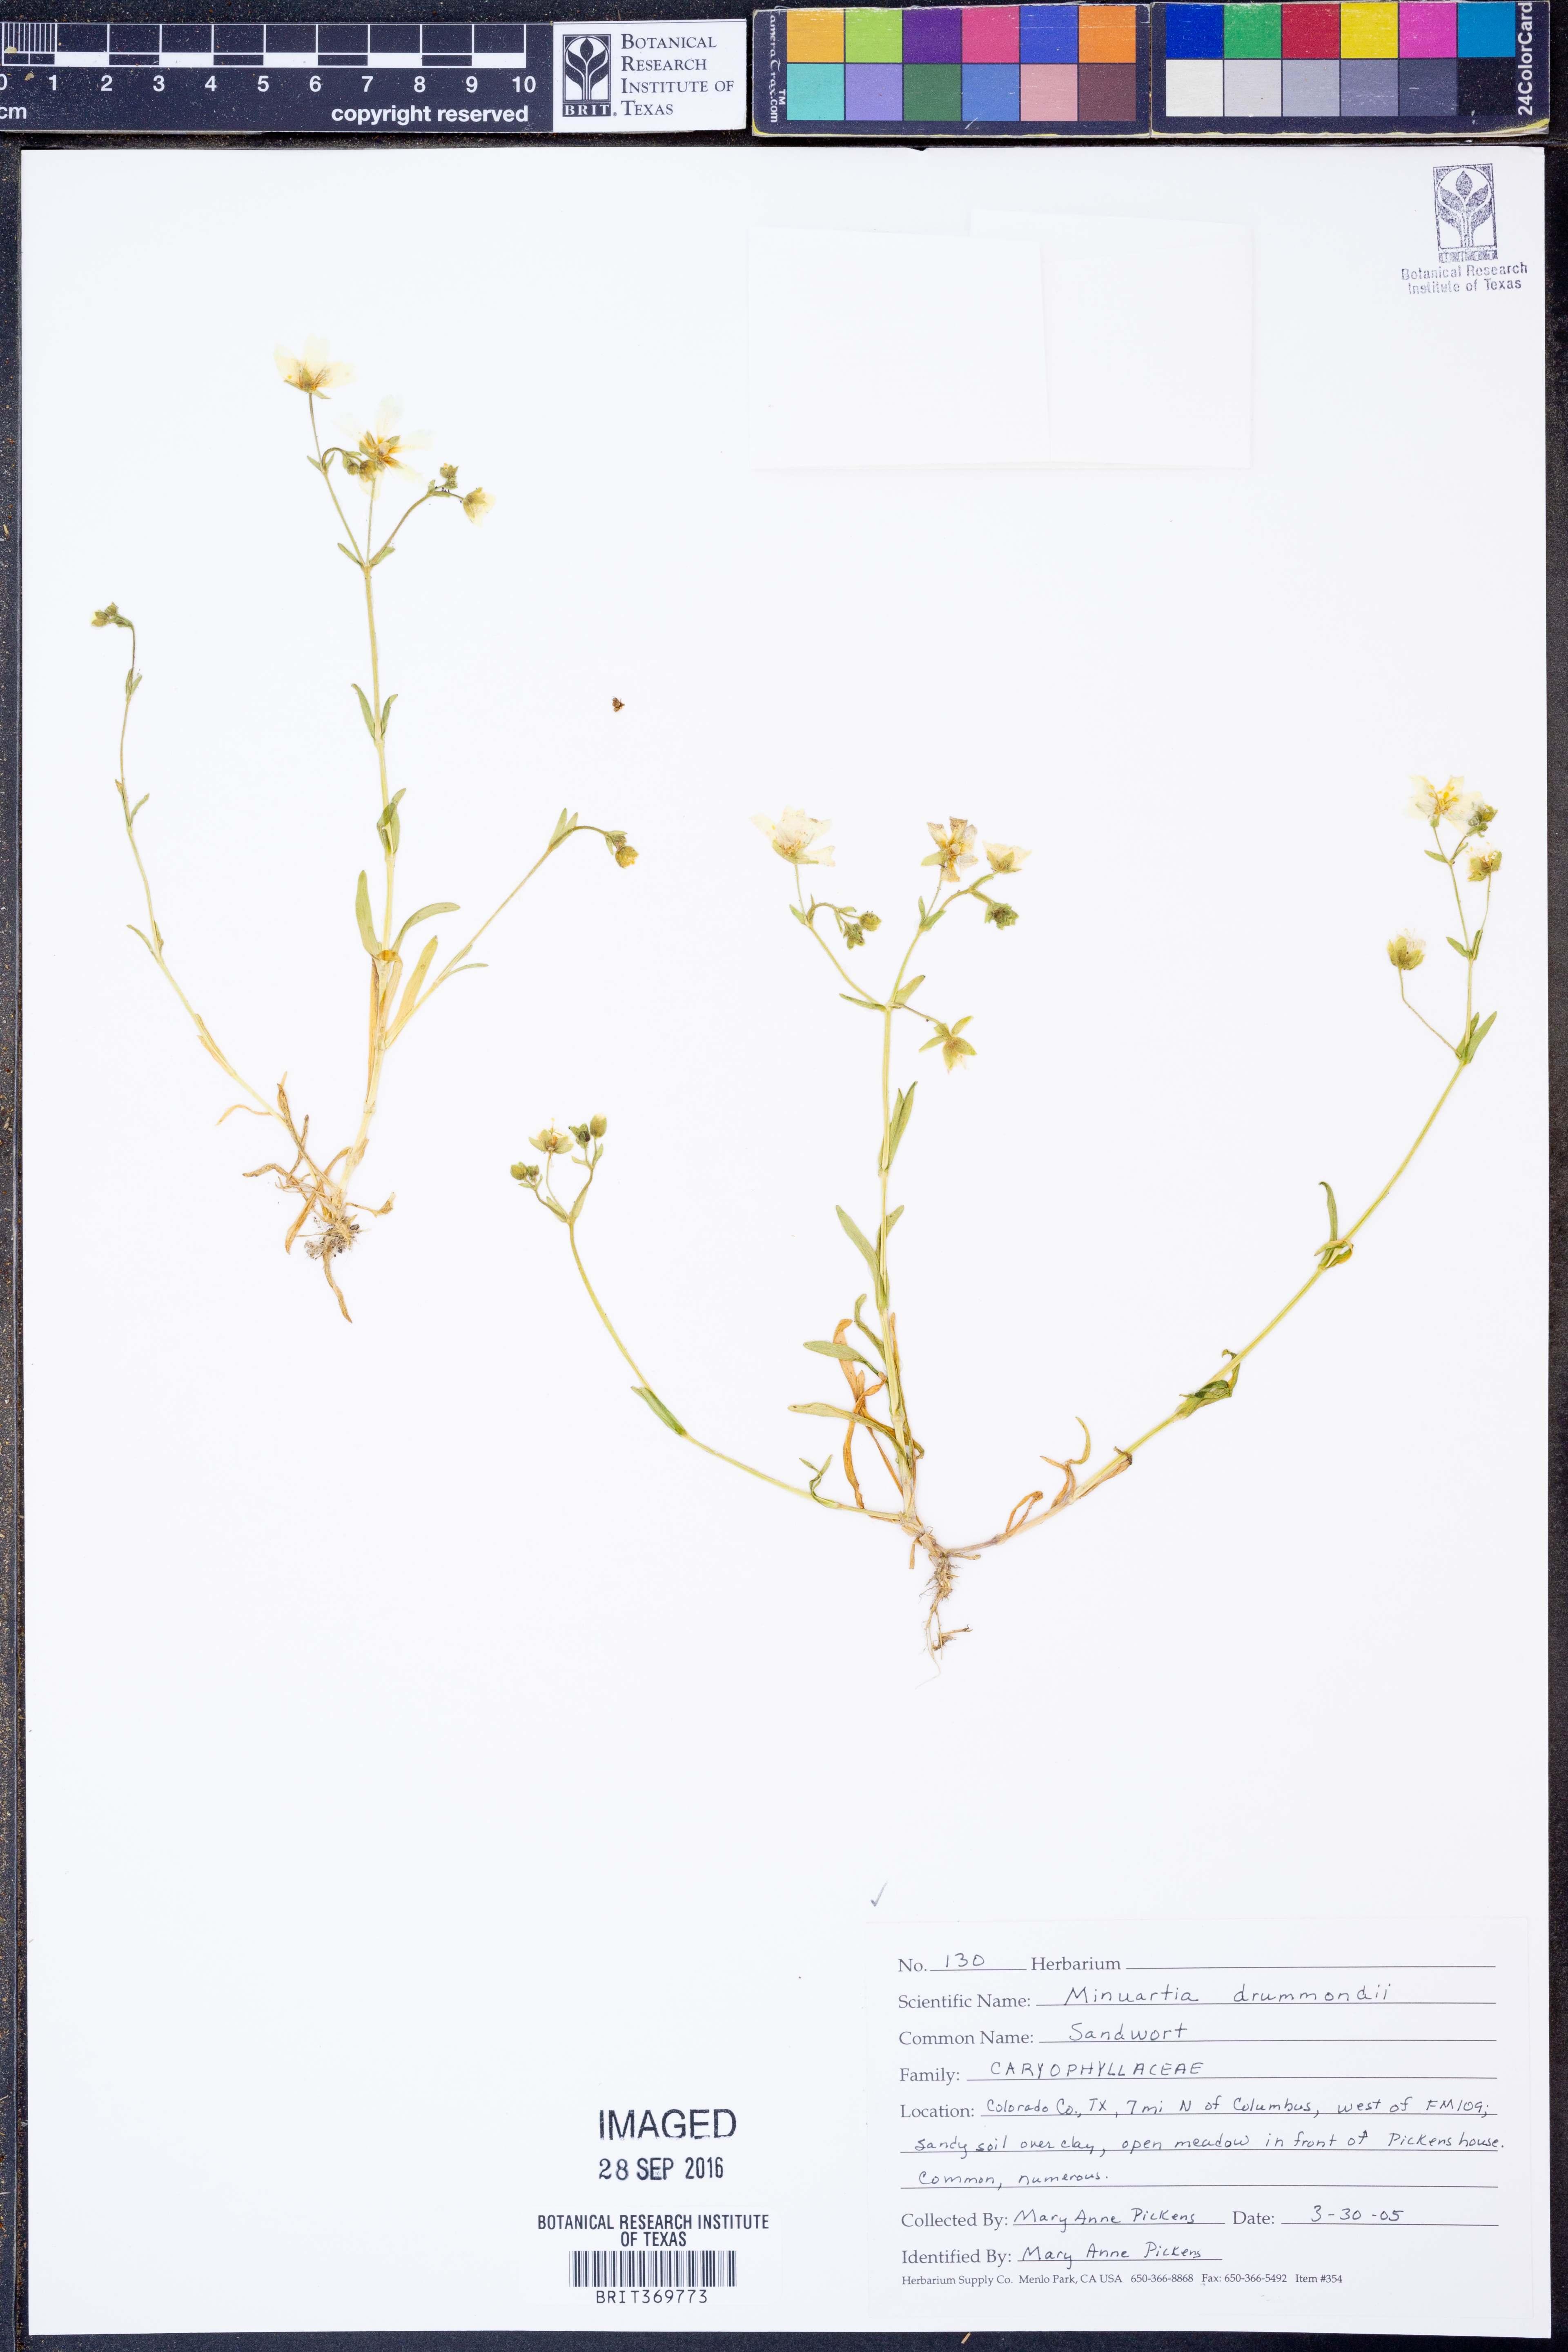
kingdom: Plantae
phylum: Tracheophyta
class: Magnoliopsida
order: Caryophyllales
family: Caryophyllaceae
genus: Geocarpon
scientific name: Geocarpon nuttallii
